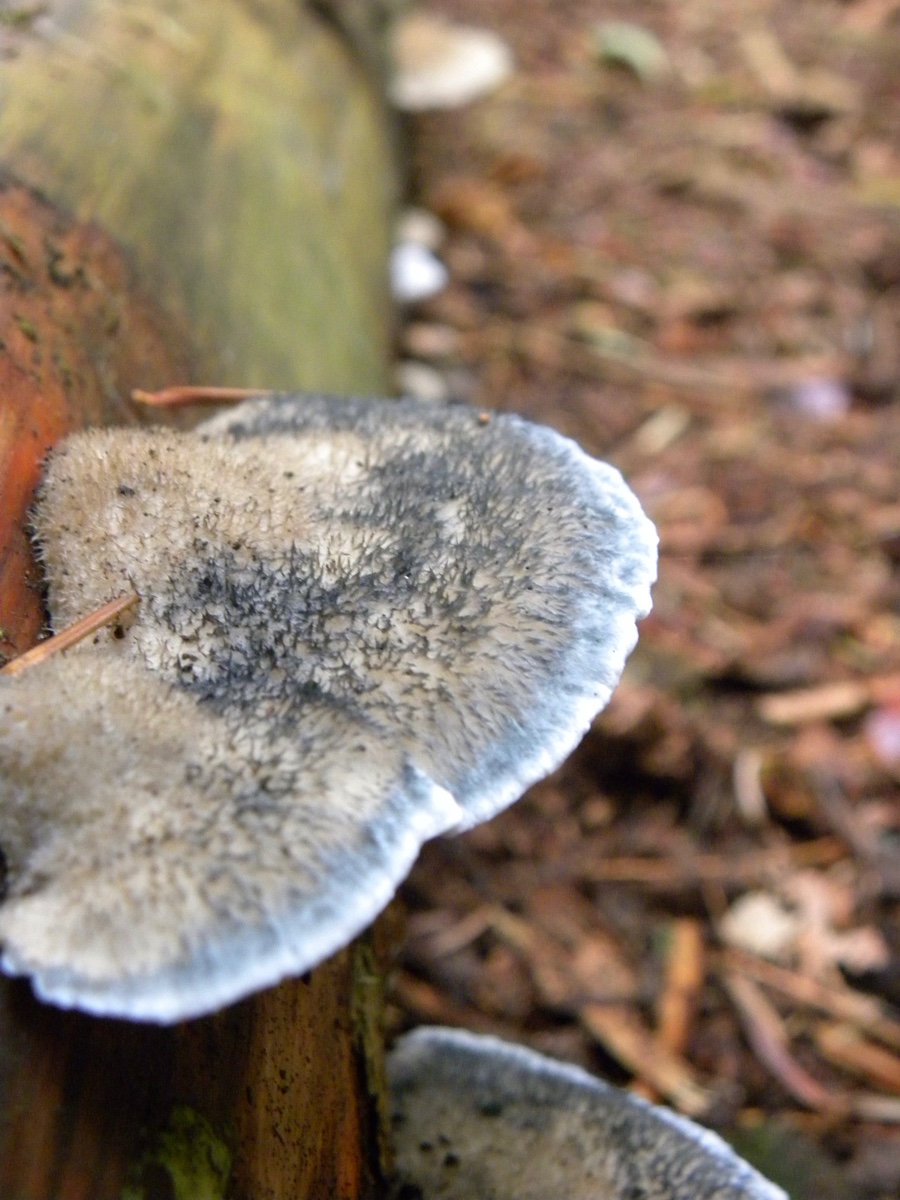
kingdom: Fungi
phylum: Basidiomycota
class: Agaricomycetes
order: Polyporales
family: Polyporaceae
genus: Cyanosporus
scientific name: Cyanosporus caesius
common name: blålig kødporesvamp
